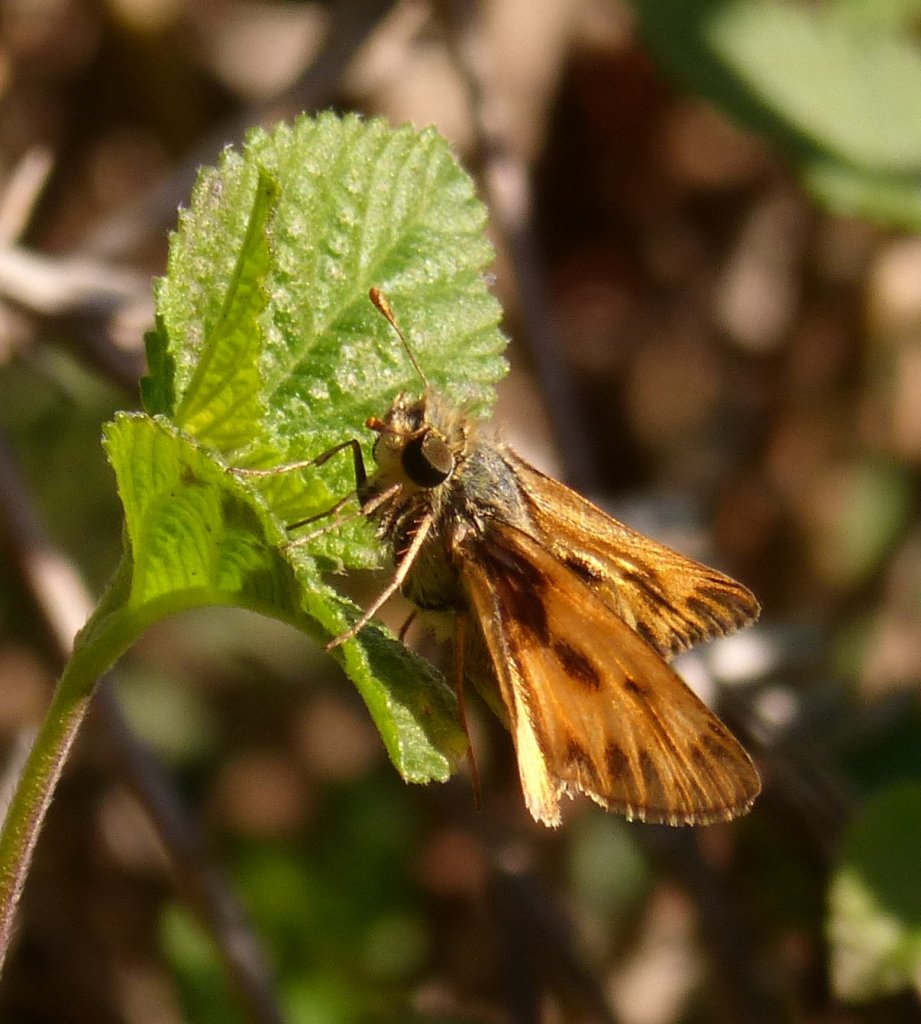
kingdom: Animalia
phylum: Arthropoda
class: Insecta
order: Lepidoptera
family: Hesperiidae
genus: Hylephila
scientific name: Hylephila phyleus
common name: Fiery Skipper
